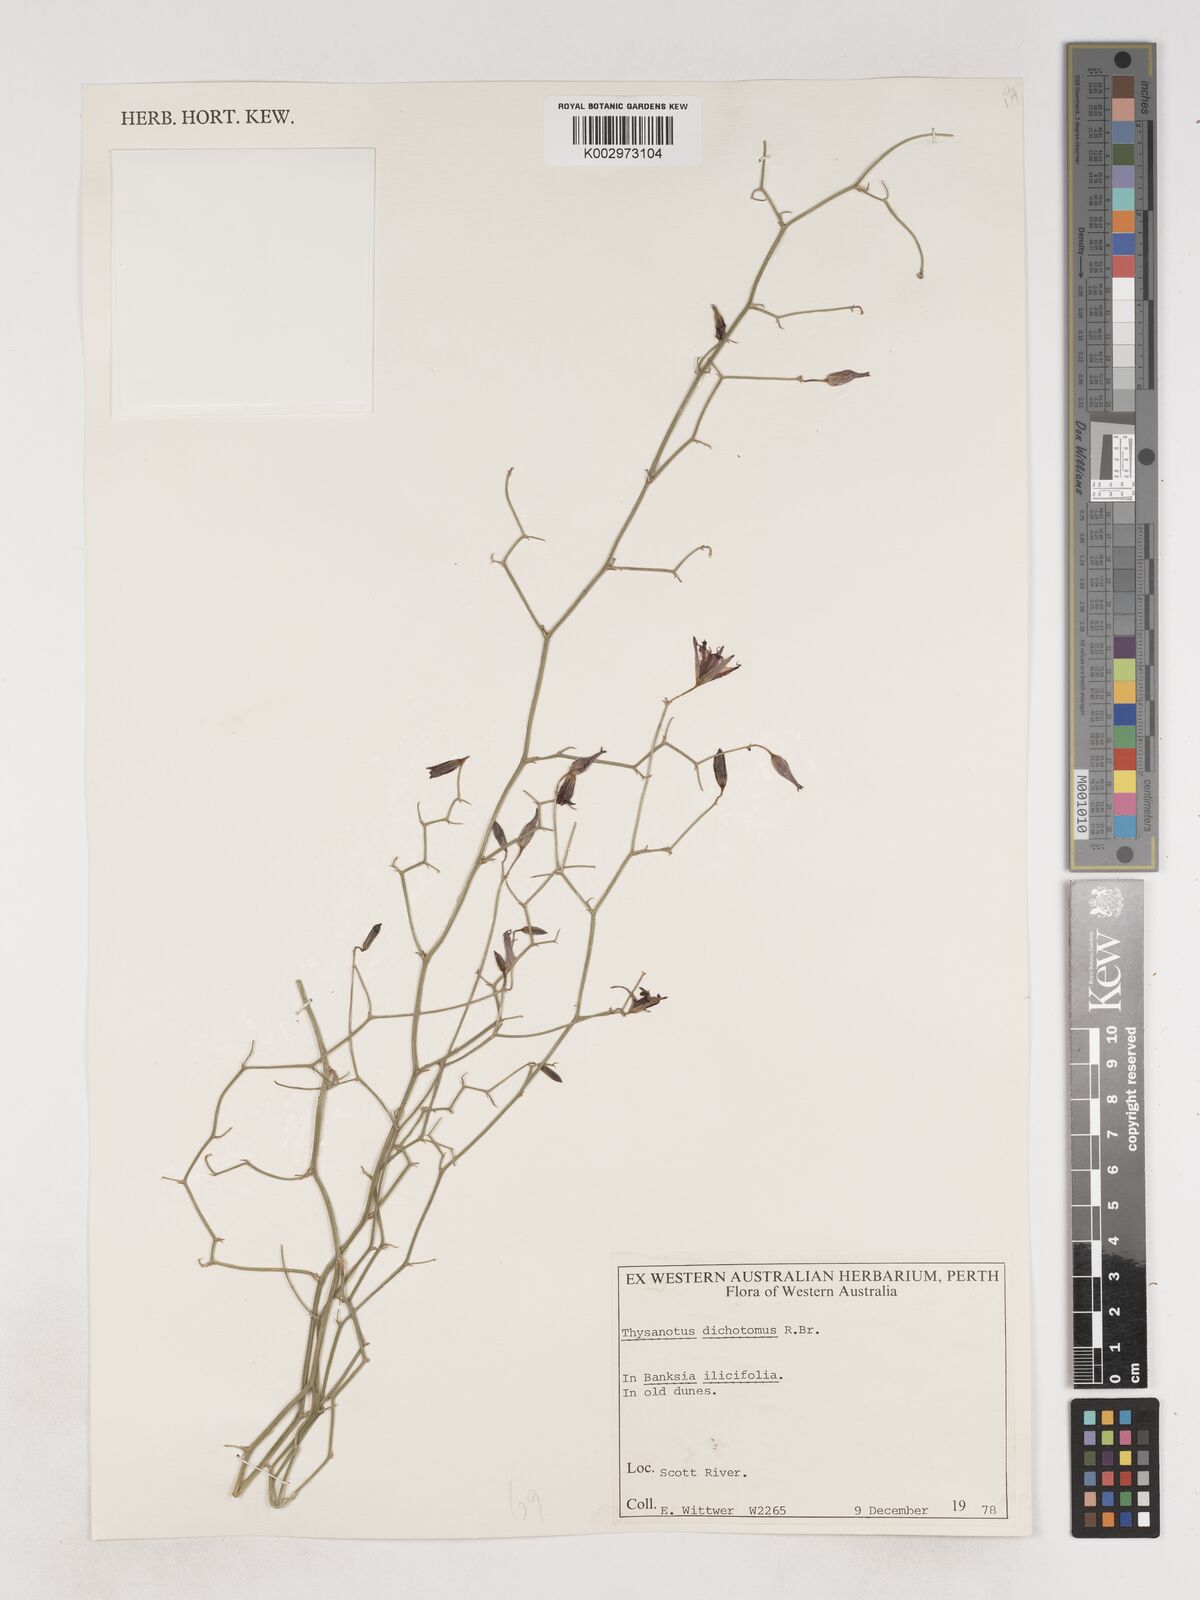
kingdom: Plantae
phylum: Tracheophyta
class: Liliopsida
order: Asparagales
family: Asparagaceae
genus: Thysanotus
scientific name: Thysanotus dichotomus
